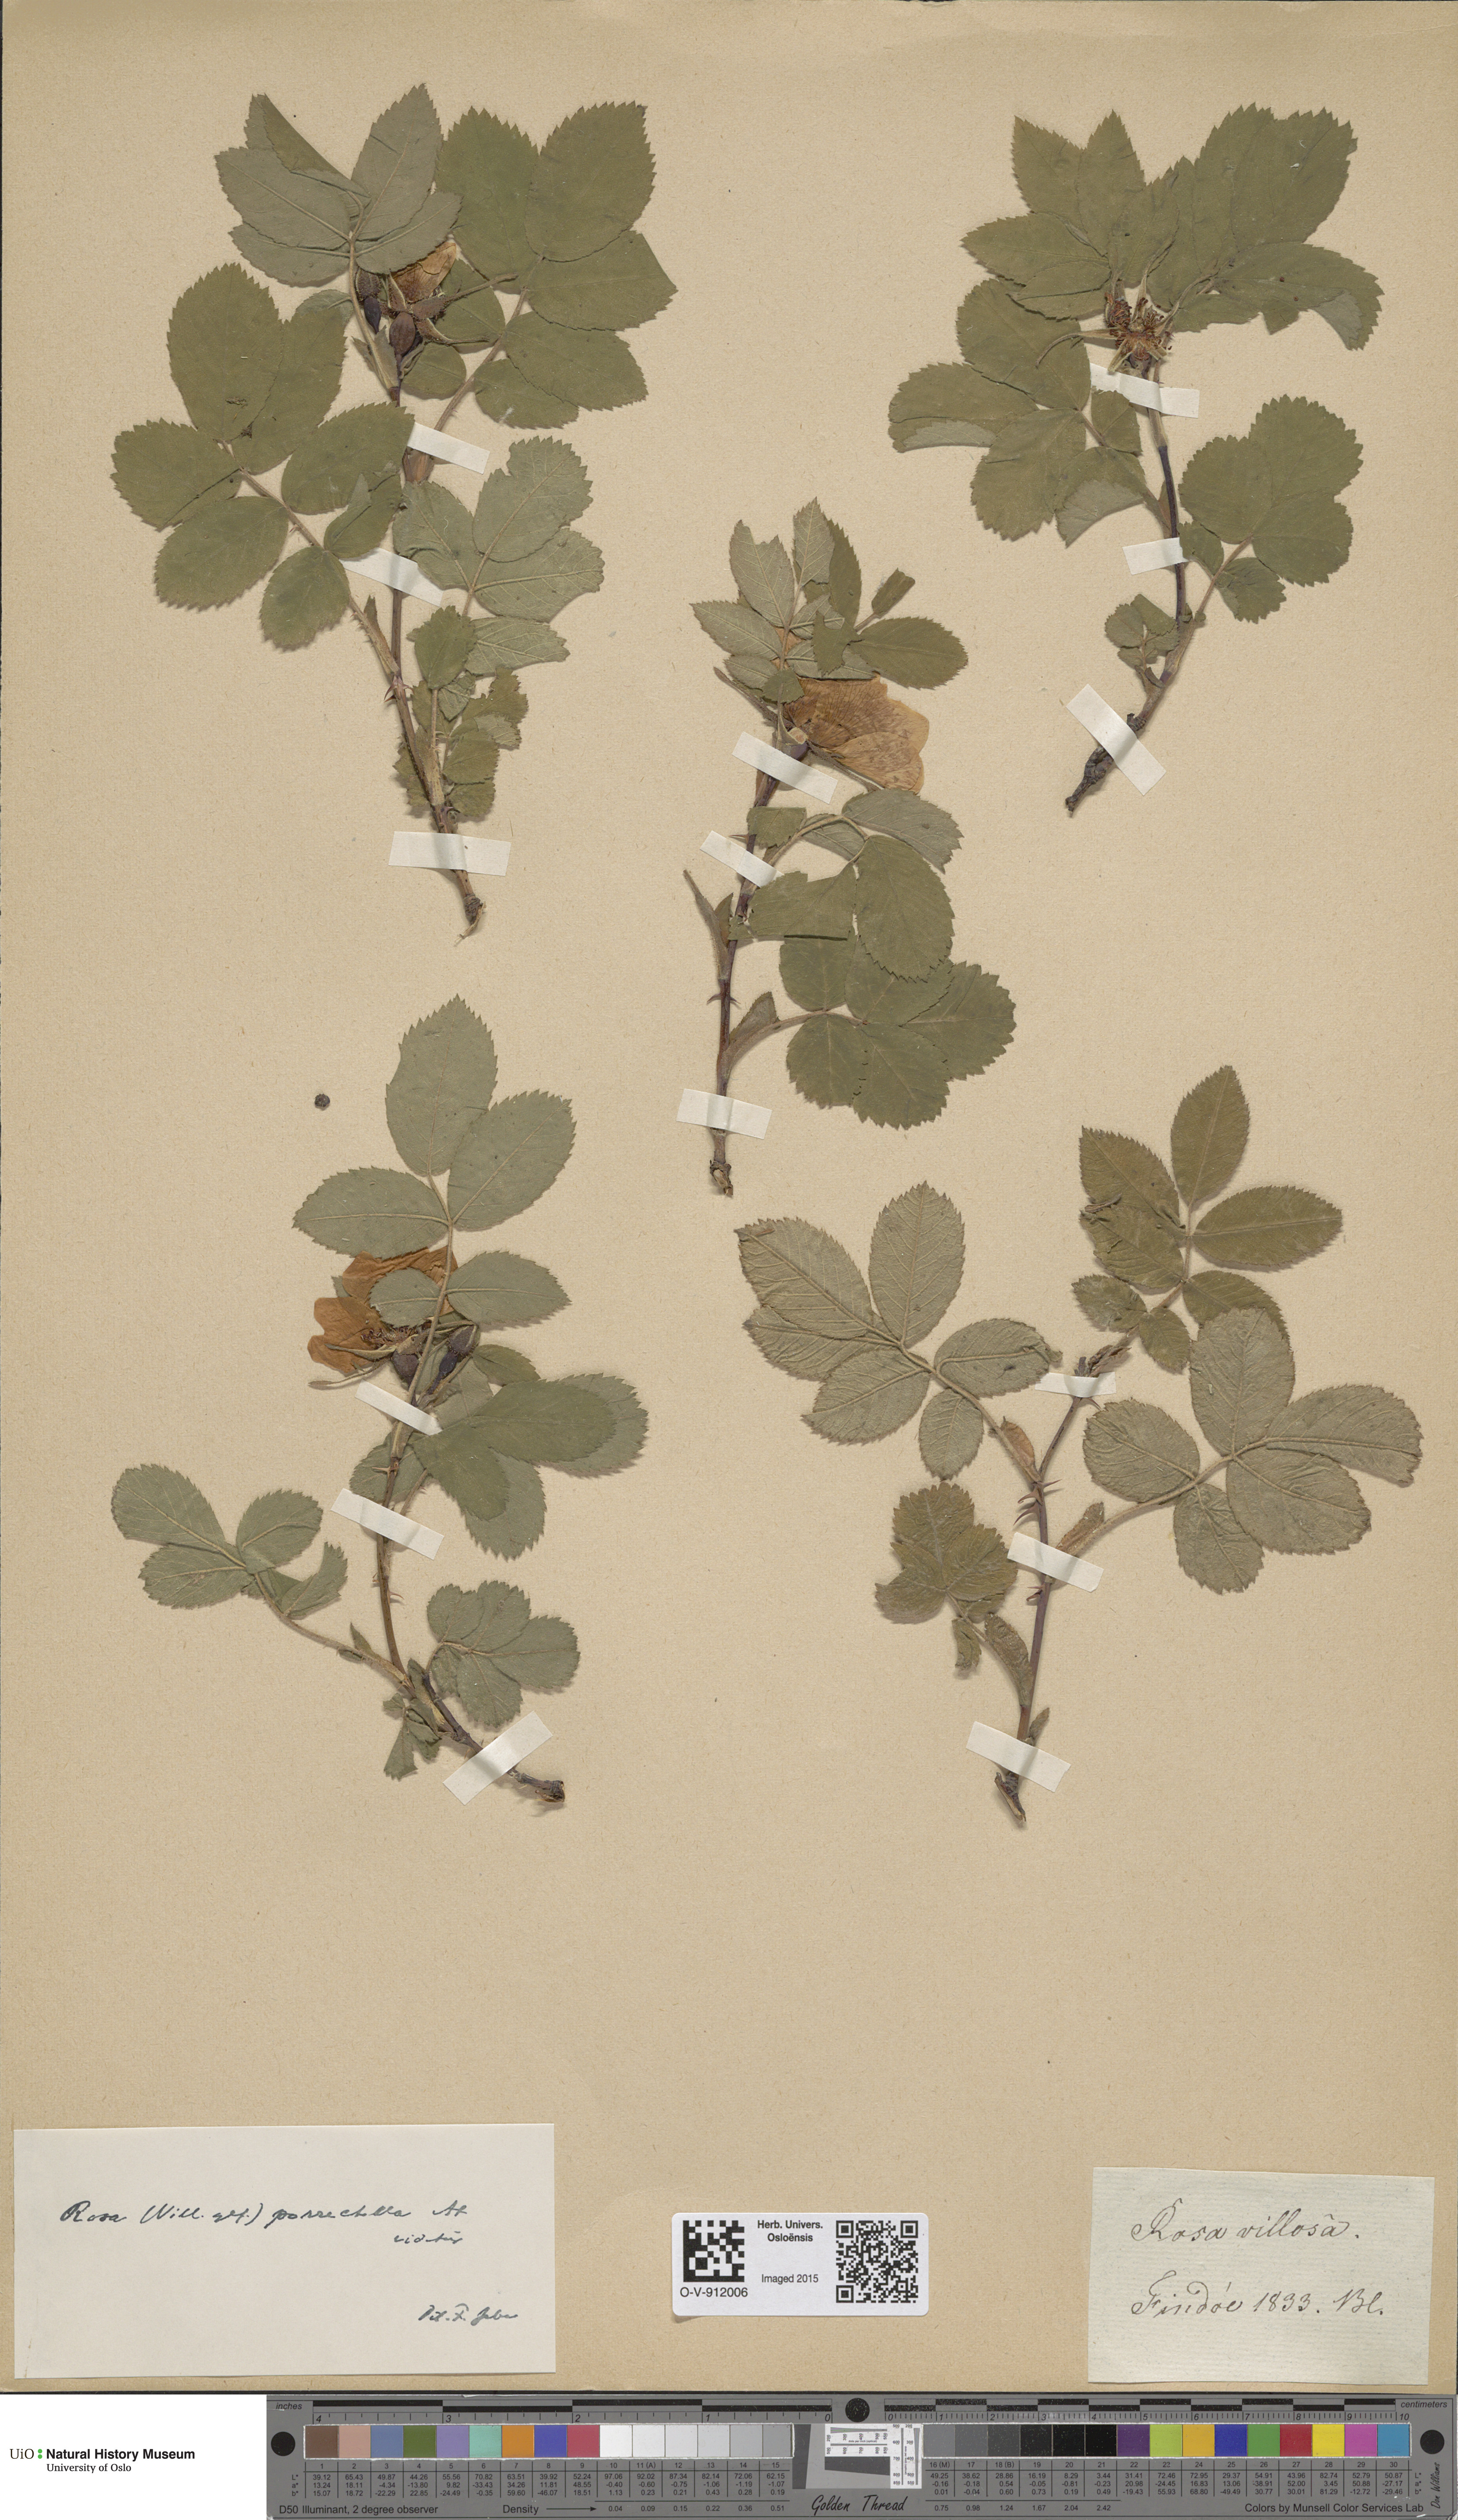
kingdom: Plantae
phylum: Tracheophyta
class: Magnoliopsida
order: Rosales
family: Rosaceae
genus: Rosa
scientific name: Rosa mollis
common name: Rose
